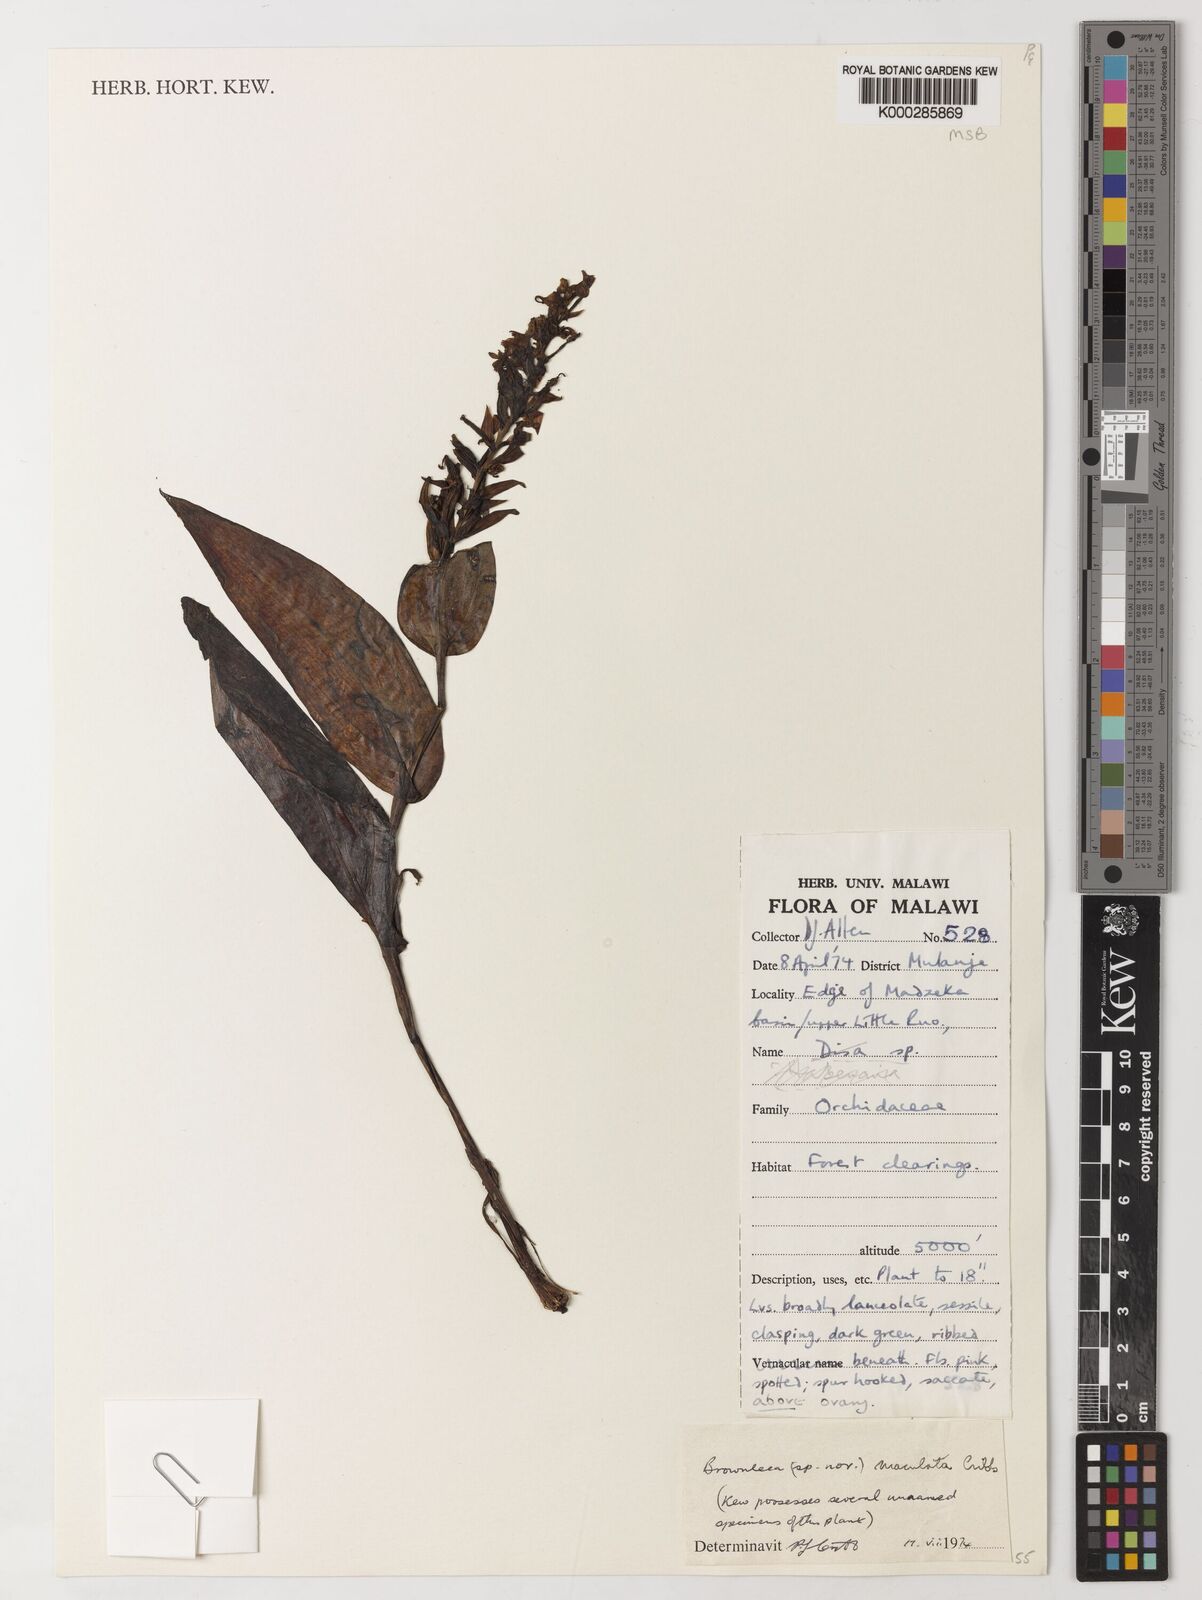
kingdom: Plantae
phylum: Tracheophyta
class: Liliopsida
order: Asparagales
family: Orchidaceae
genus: Brownleea
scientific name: Brownleea maculata
